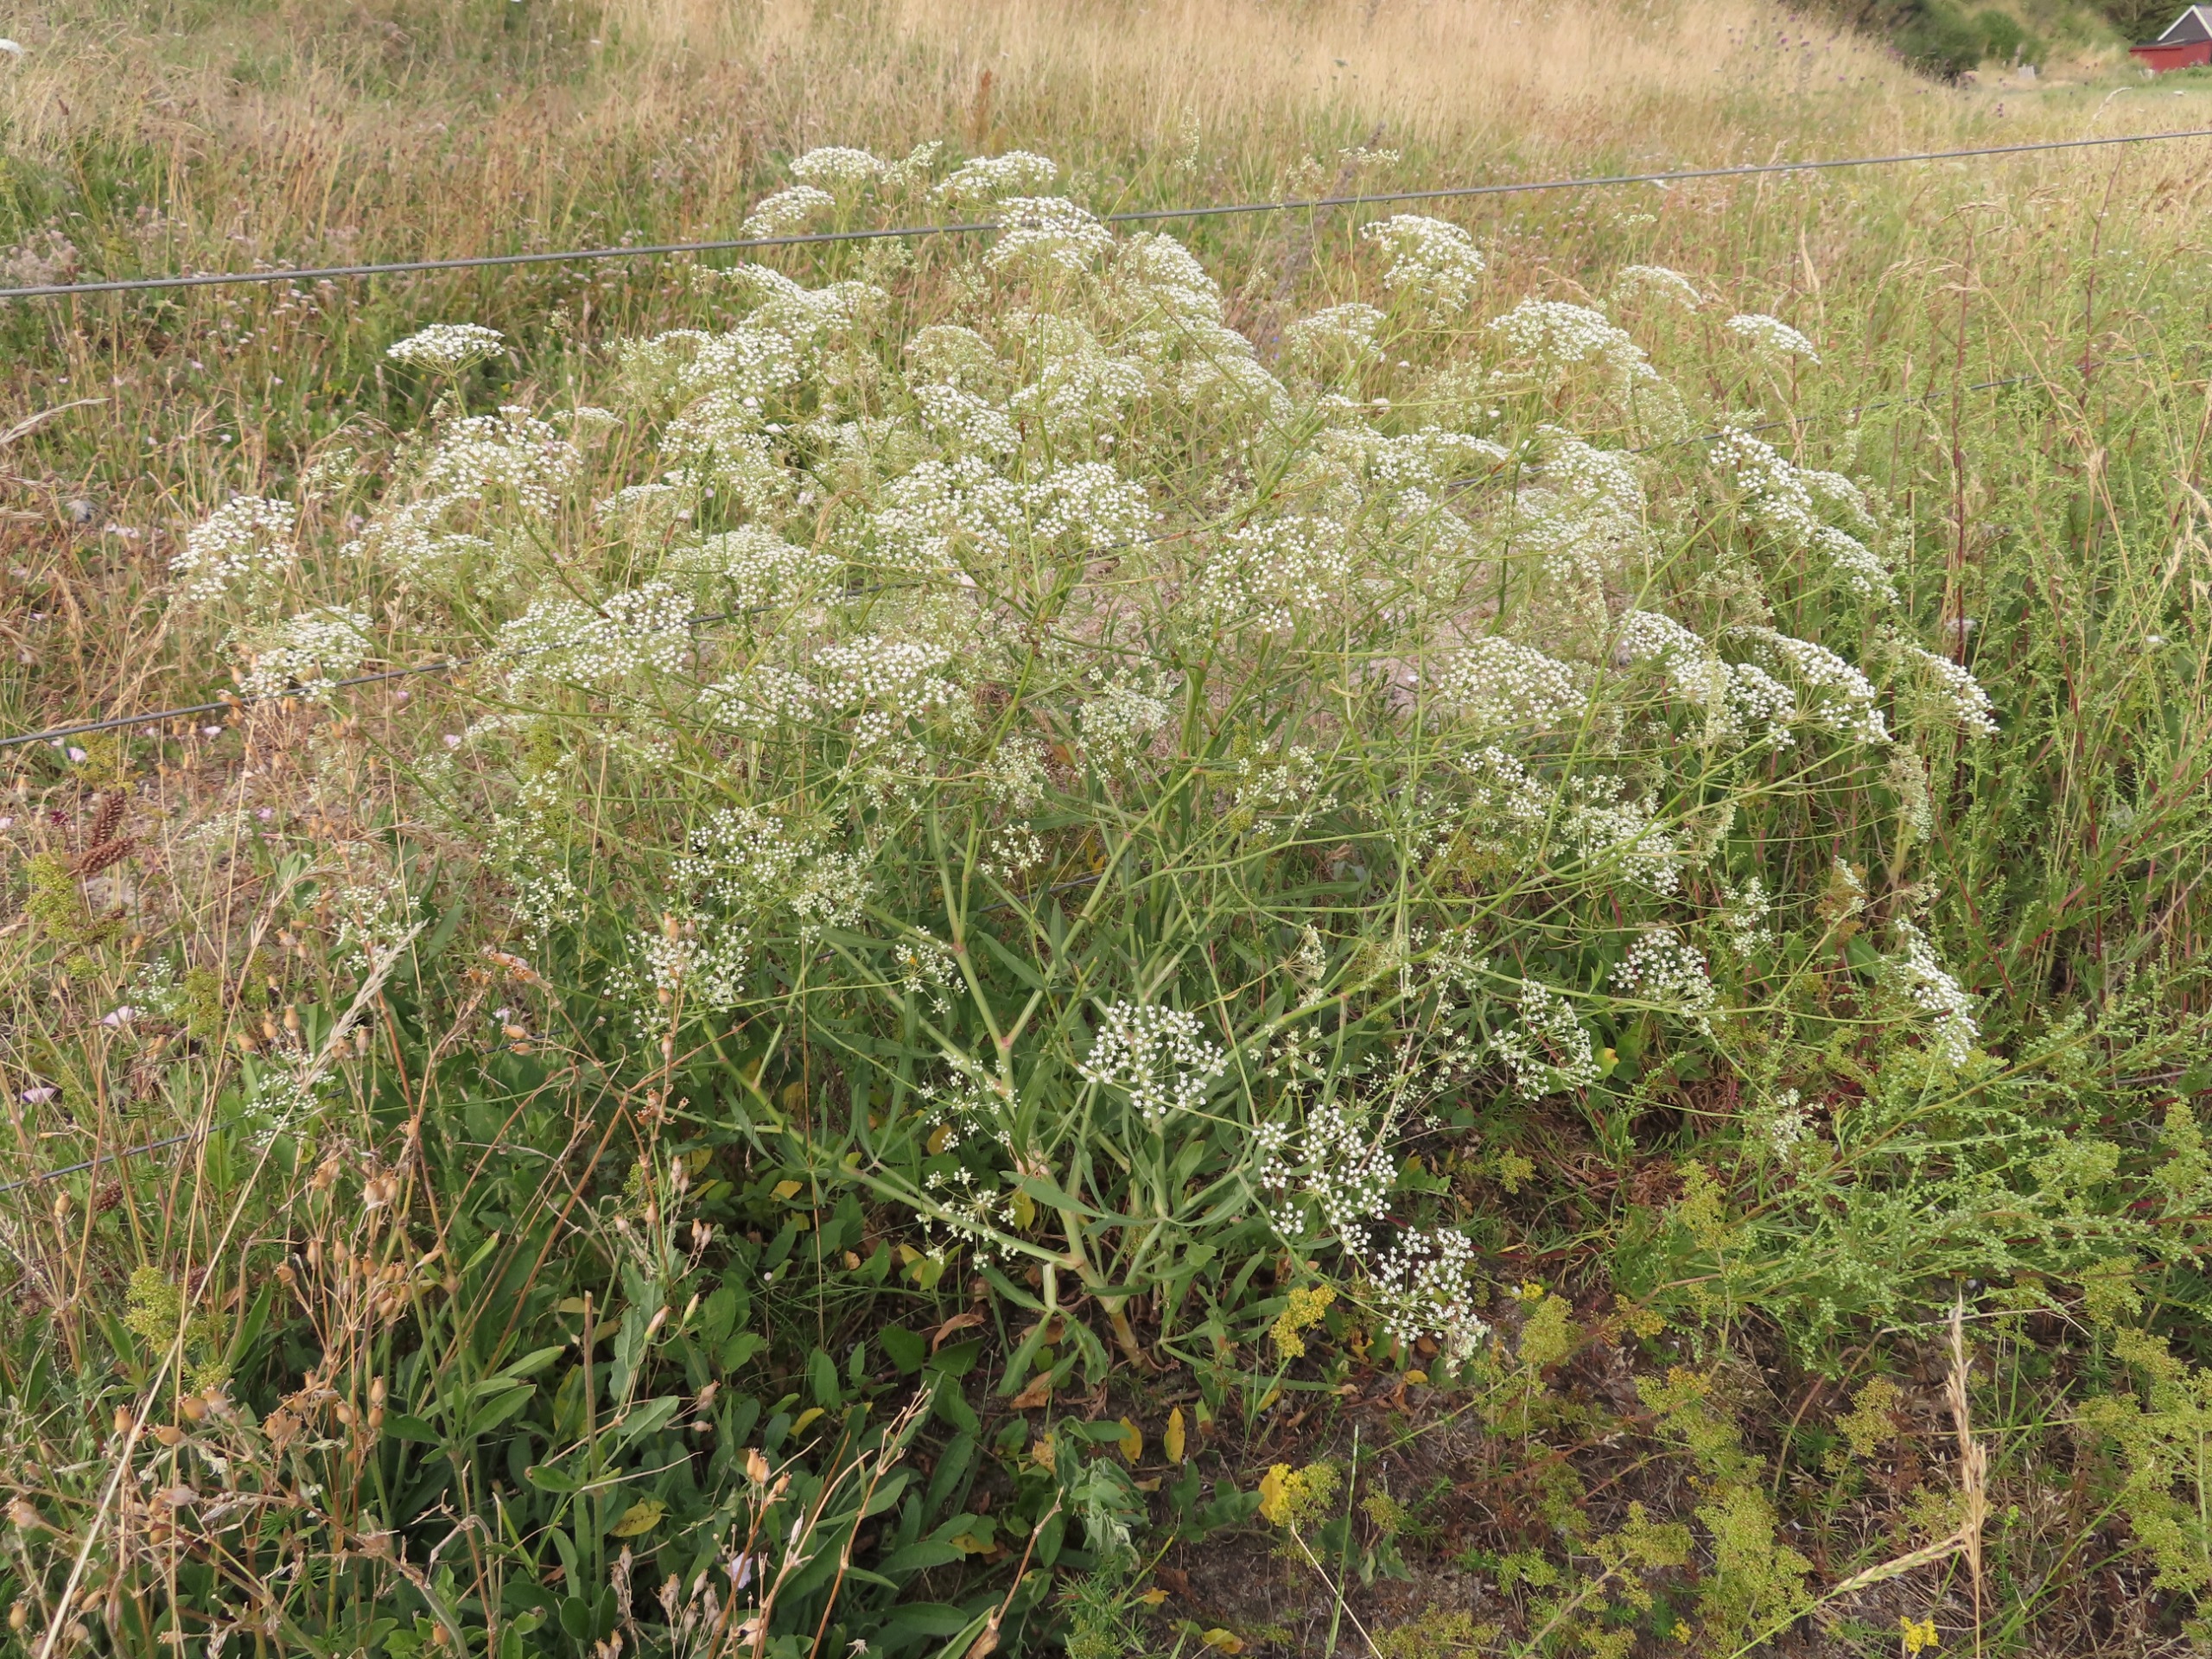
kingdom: Plantae
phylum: Tracheophyta
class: Magnoliopsida
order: Apiales
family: Apiaceae
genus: Falcaria
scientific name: Falcaria vulgaris
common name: Seglblad
